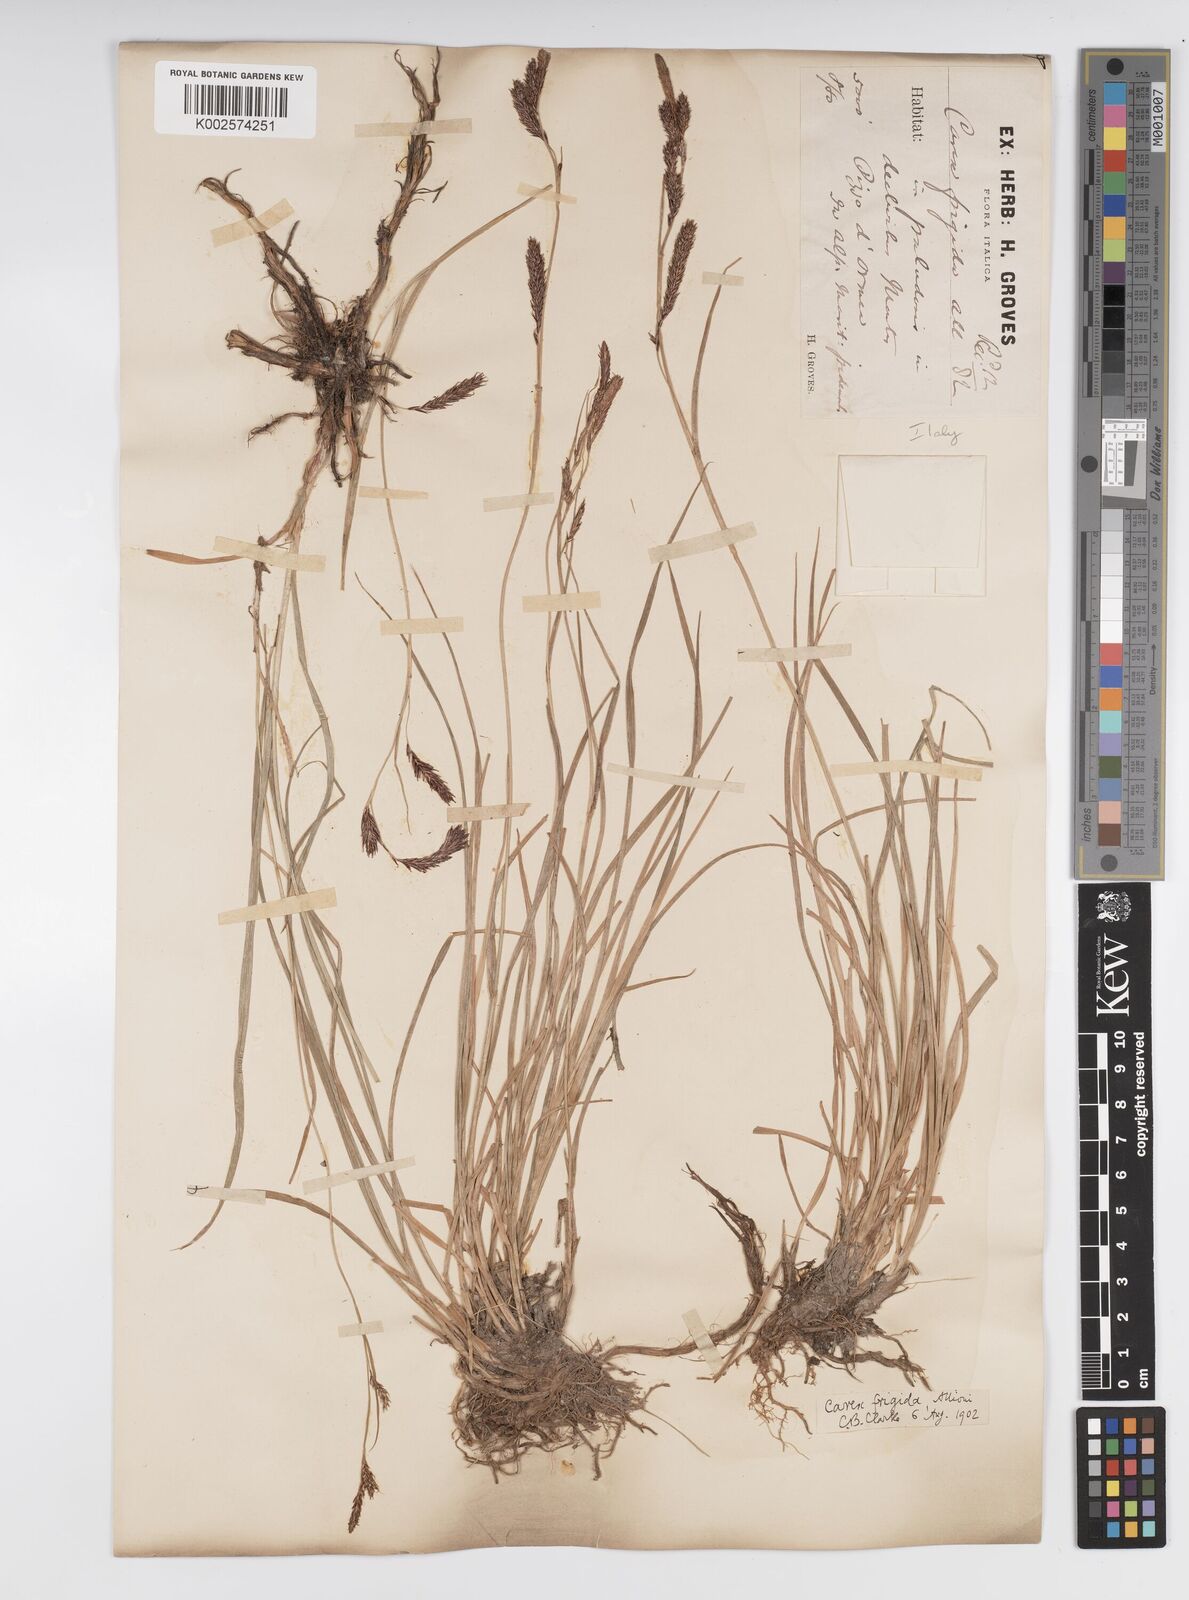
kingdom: Plantae
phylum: Tracheophyta
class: Liliopsida
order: Poales
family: Cyperaceae
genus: Carex
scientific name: Carex frigida
